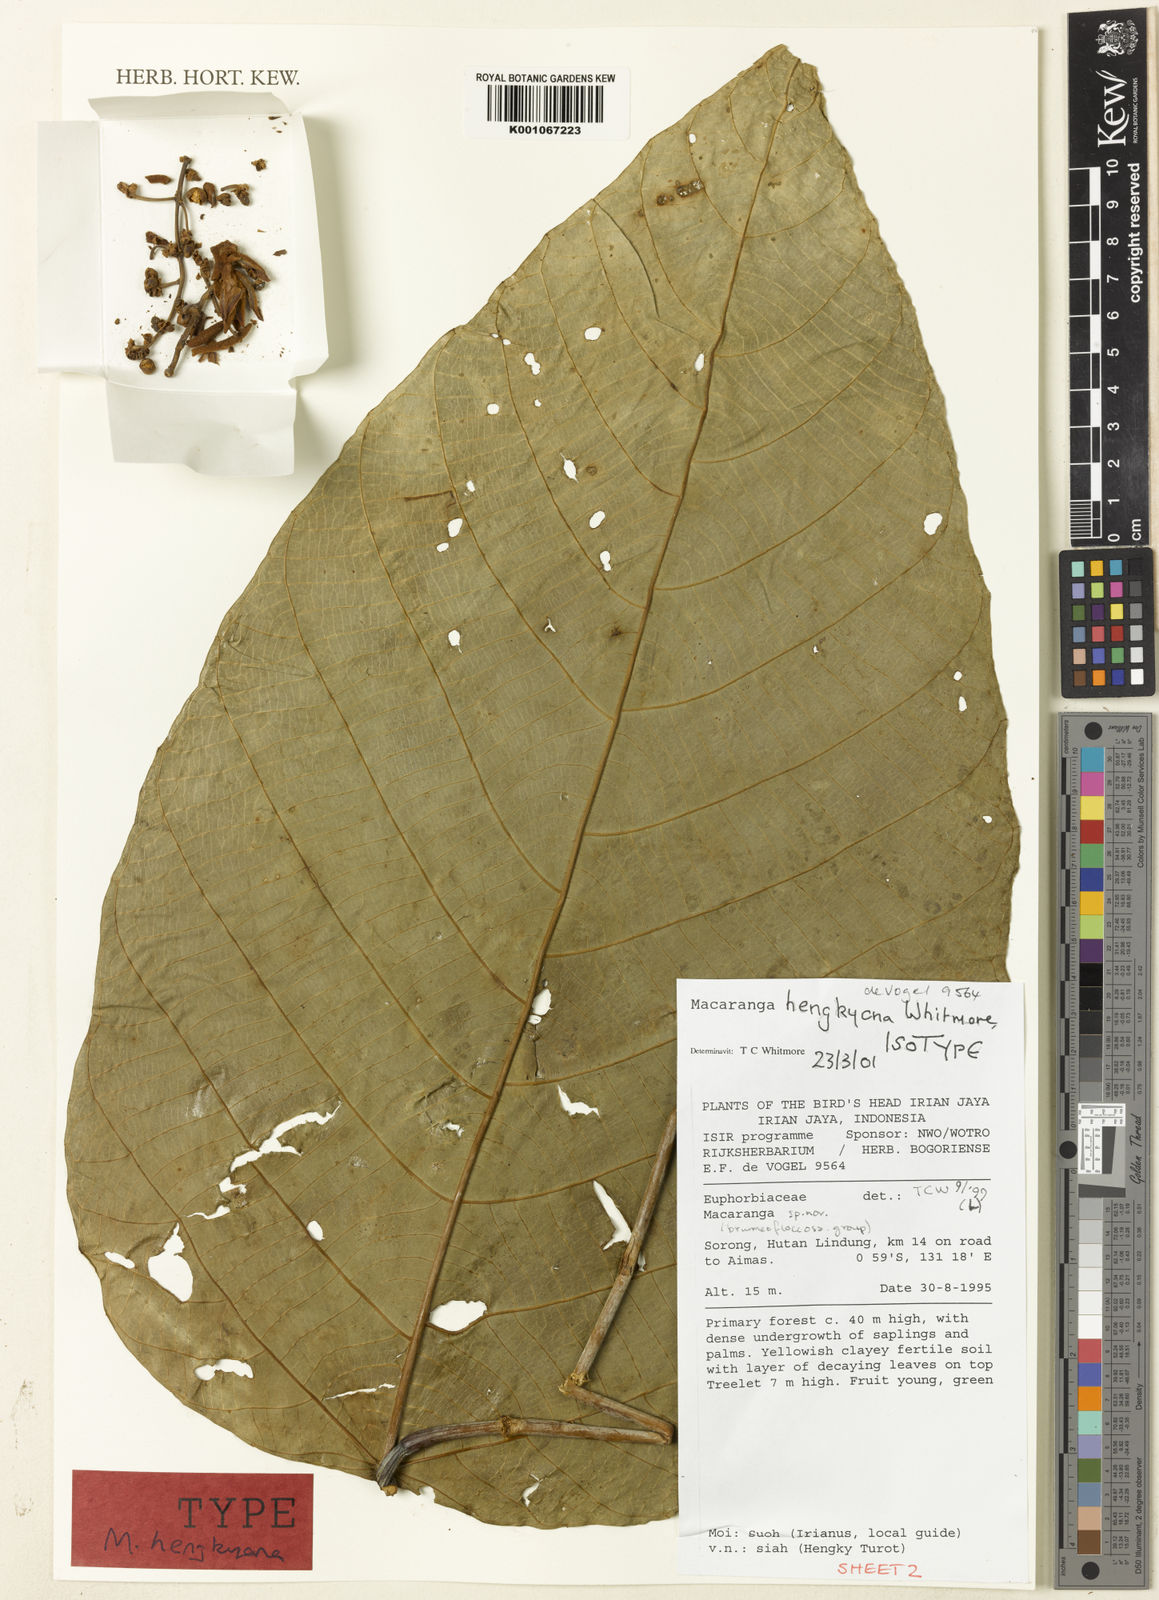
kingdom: Plantae
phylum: Tracheophyta
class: Magnoliopsida
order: Malpighiales
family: Euphorbiaceae
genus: Macaranga
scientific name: Macaranga hengkyana
